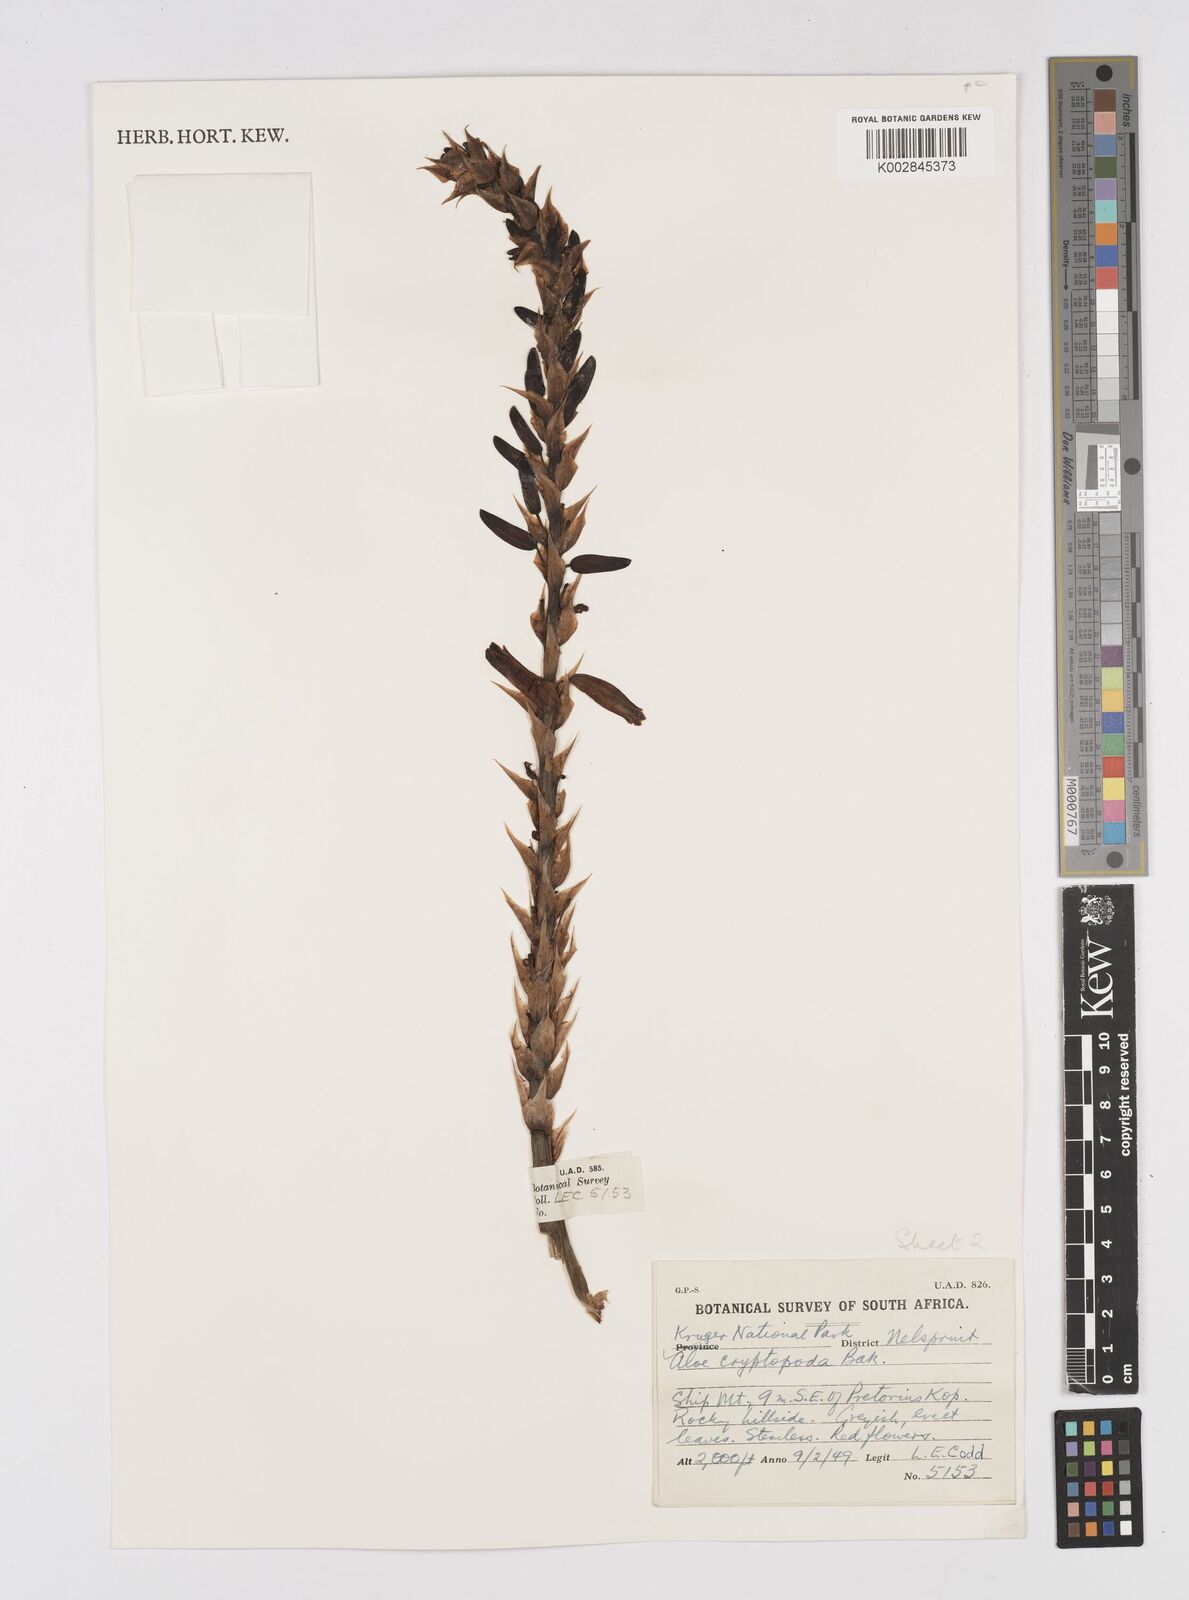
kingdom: Plantae
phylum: Tracheophyta
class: Liliopsida
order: Asparagales
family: Asphodelaceae
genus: Aloe
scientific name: Aloe cryptopoda
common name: Dr. kirk's aloe
